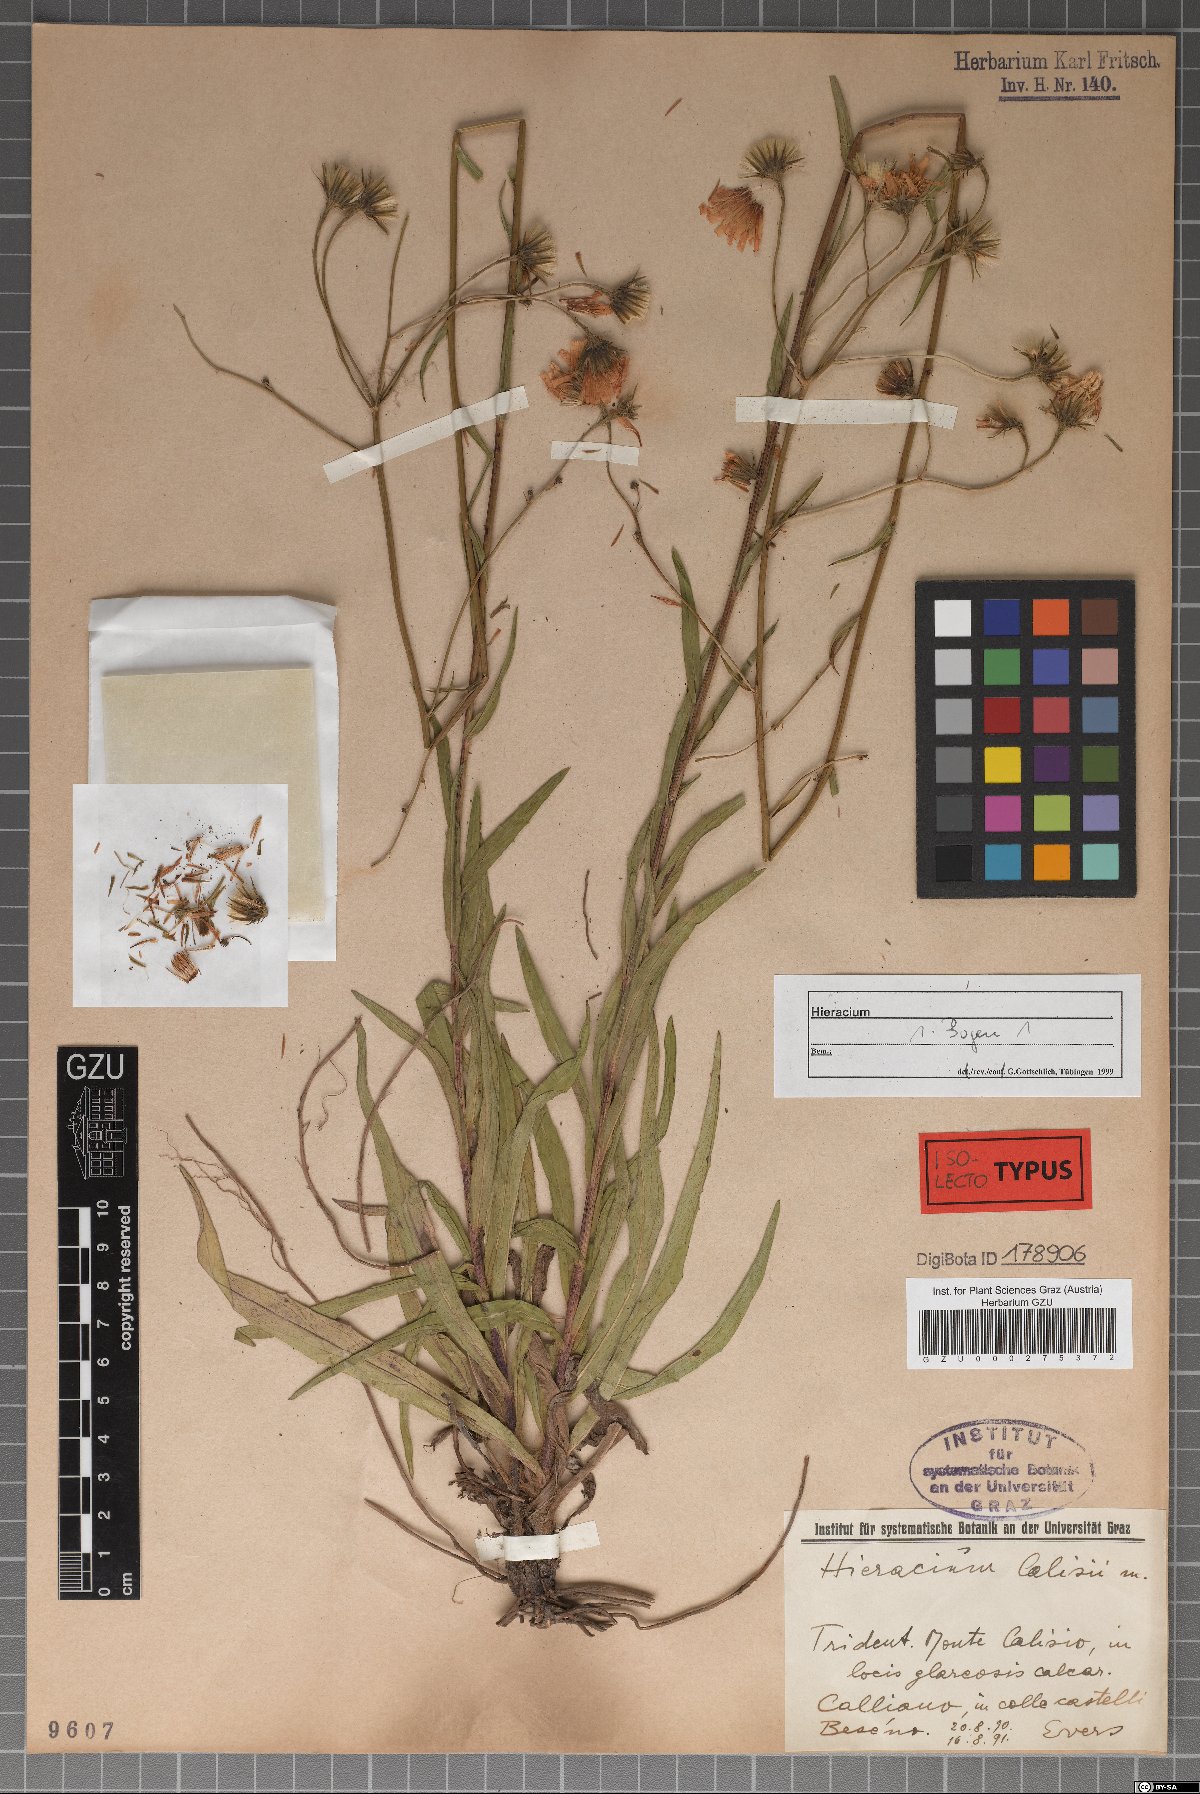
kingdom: Plantae
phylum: Tracheophyta
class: Magnoliopsida
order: Asterales
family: Asteraceae
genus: Hieracium
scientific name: Hieracium leiocephalum
